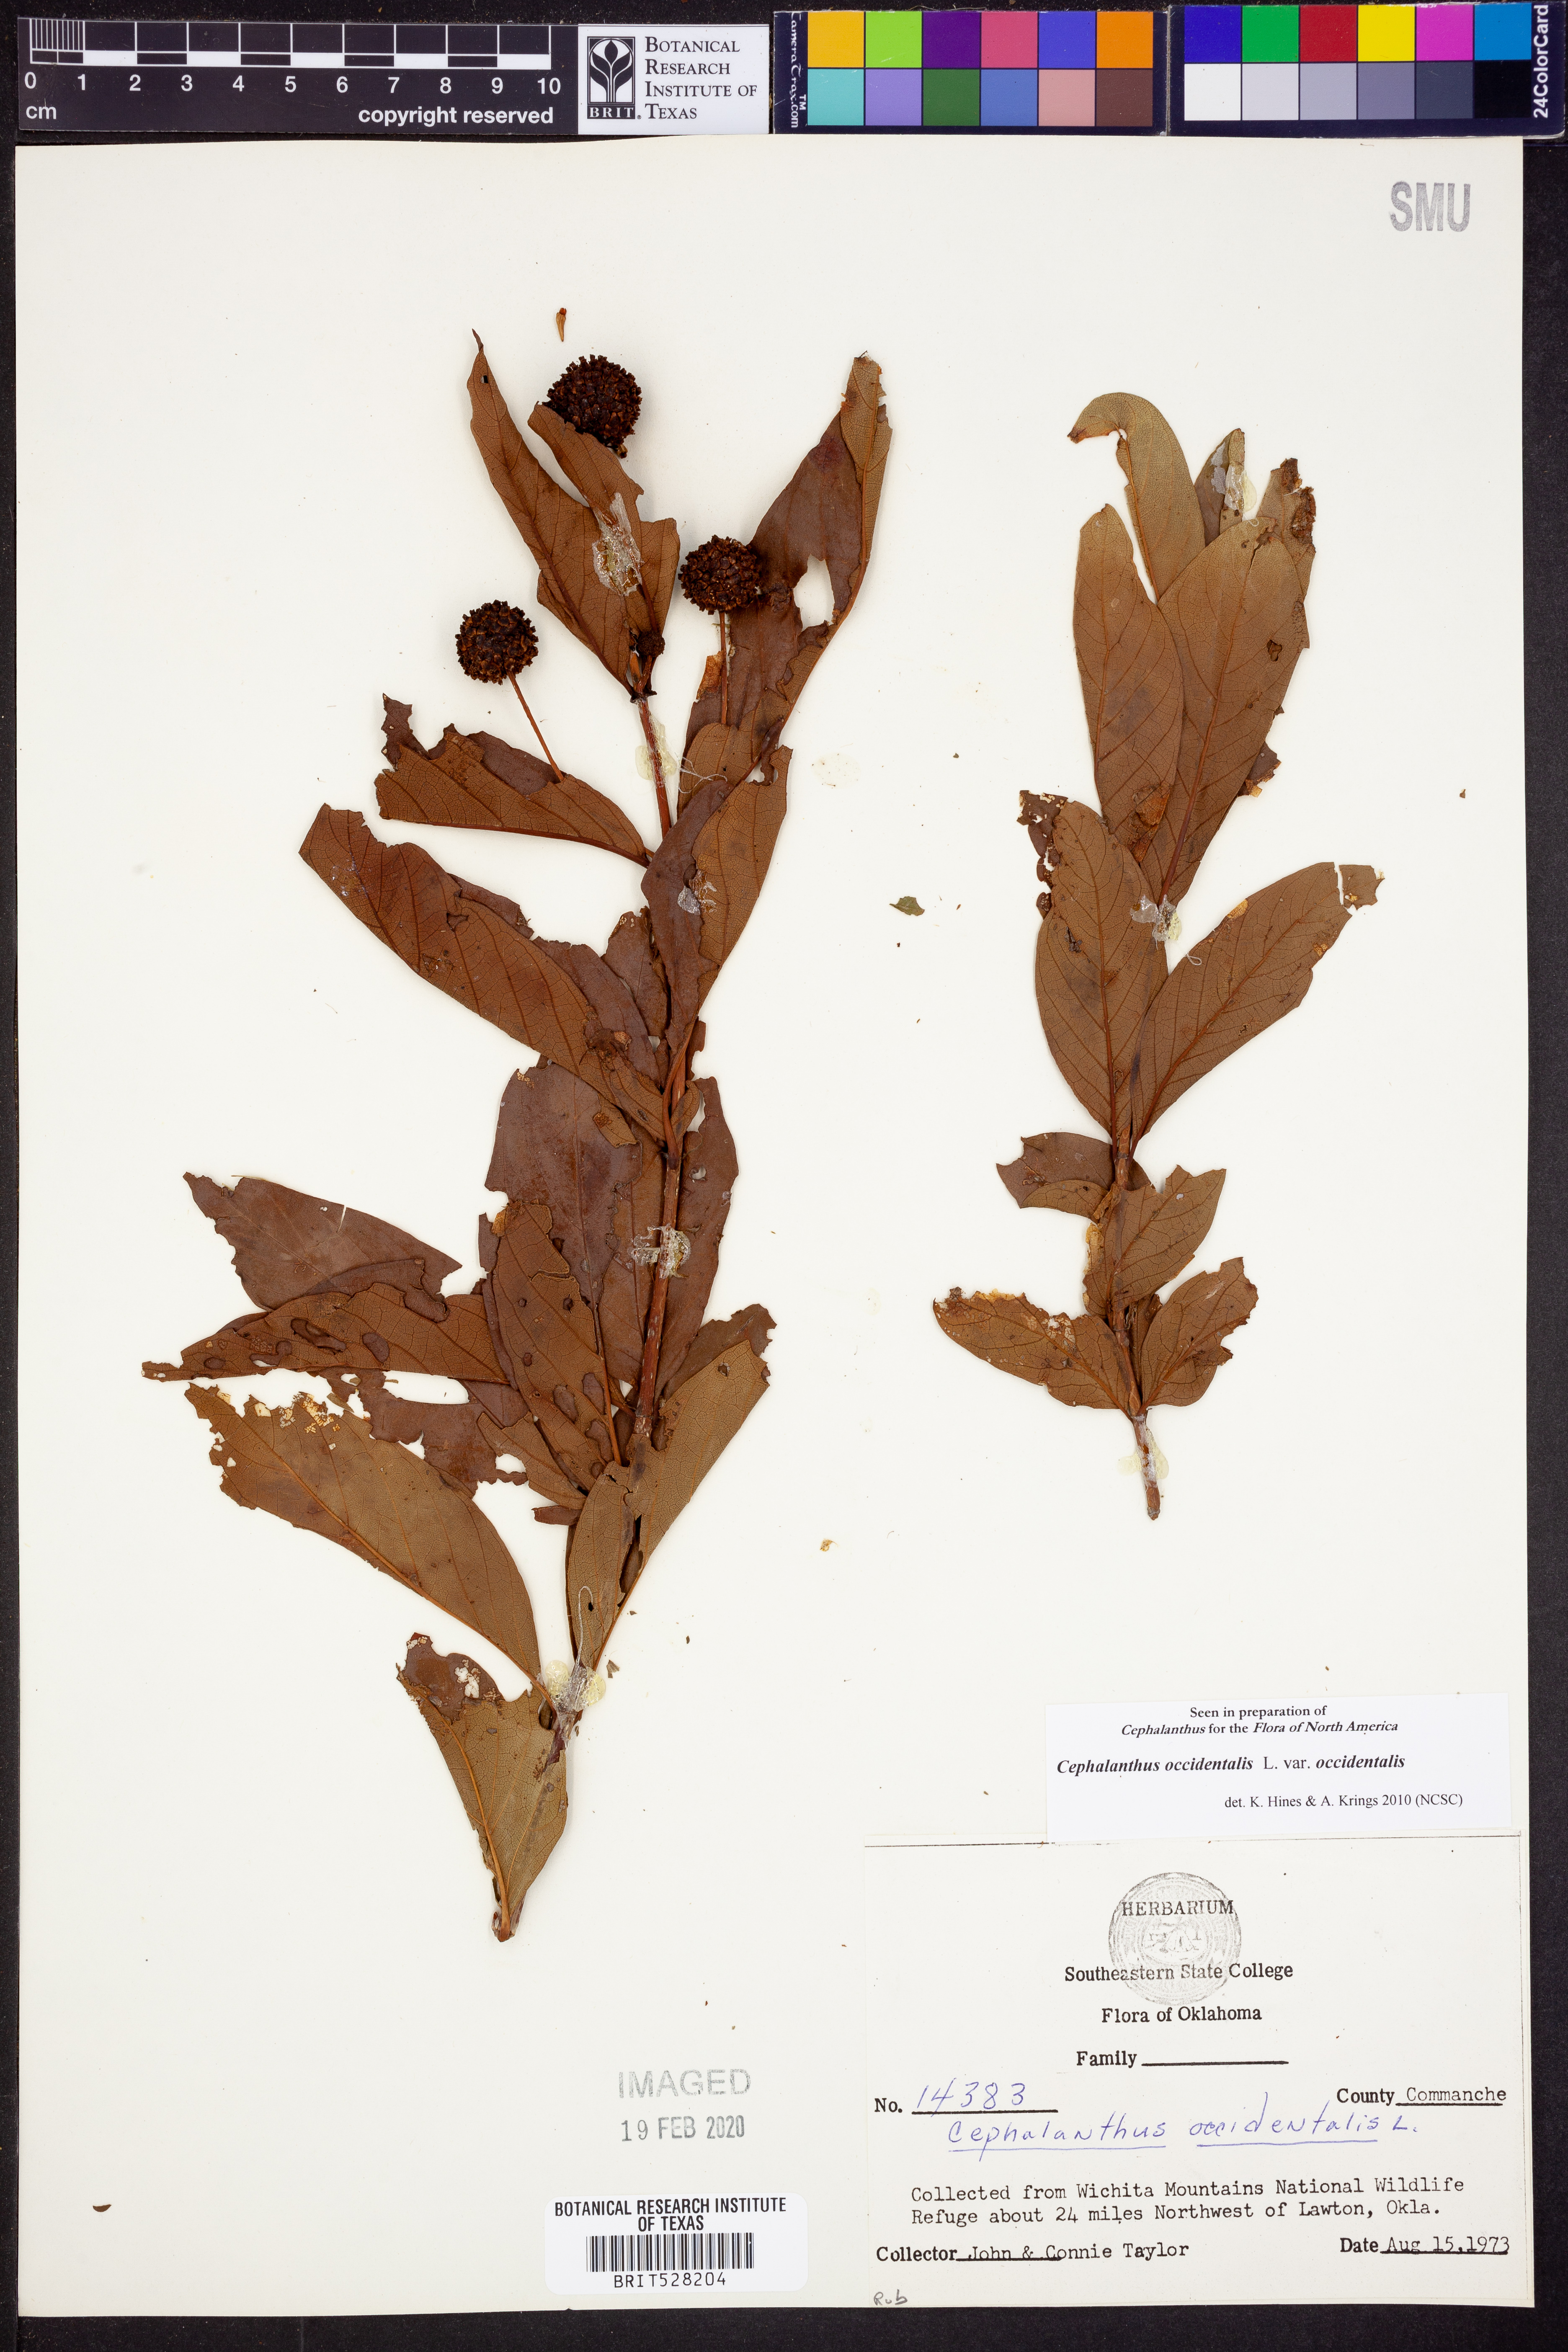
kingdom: Plantae
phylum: Tracheophyta
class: Magnoliopsida
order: Gentianales
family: Rubiaceae
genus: Cephalanthus
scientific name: Cephalanthus occidentalis
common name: Button-willow
